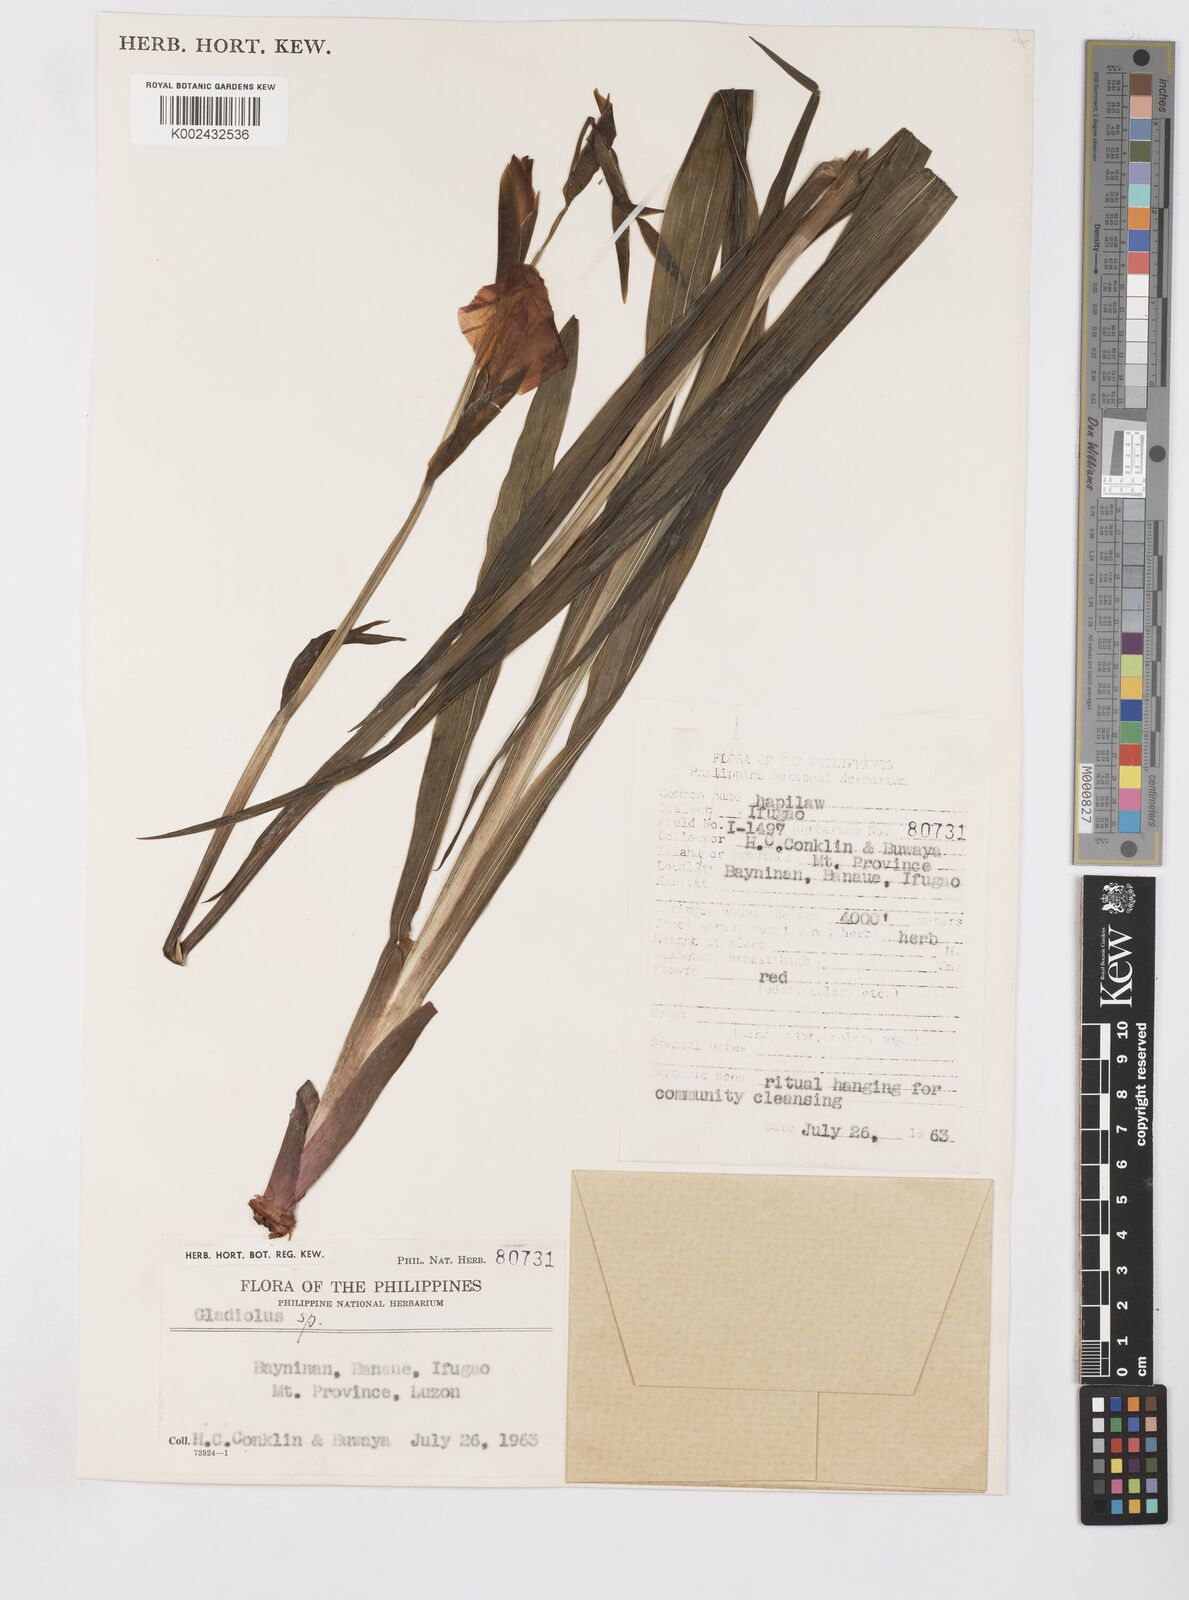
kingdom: Plantae
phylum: Tracheophyta
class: Liliopsida
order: Asparagales
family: Iridaceae
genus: Gladiolus
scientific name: Gladiolus
